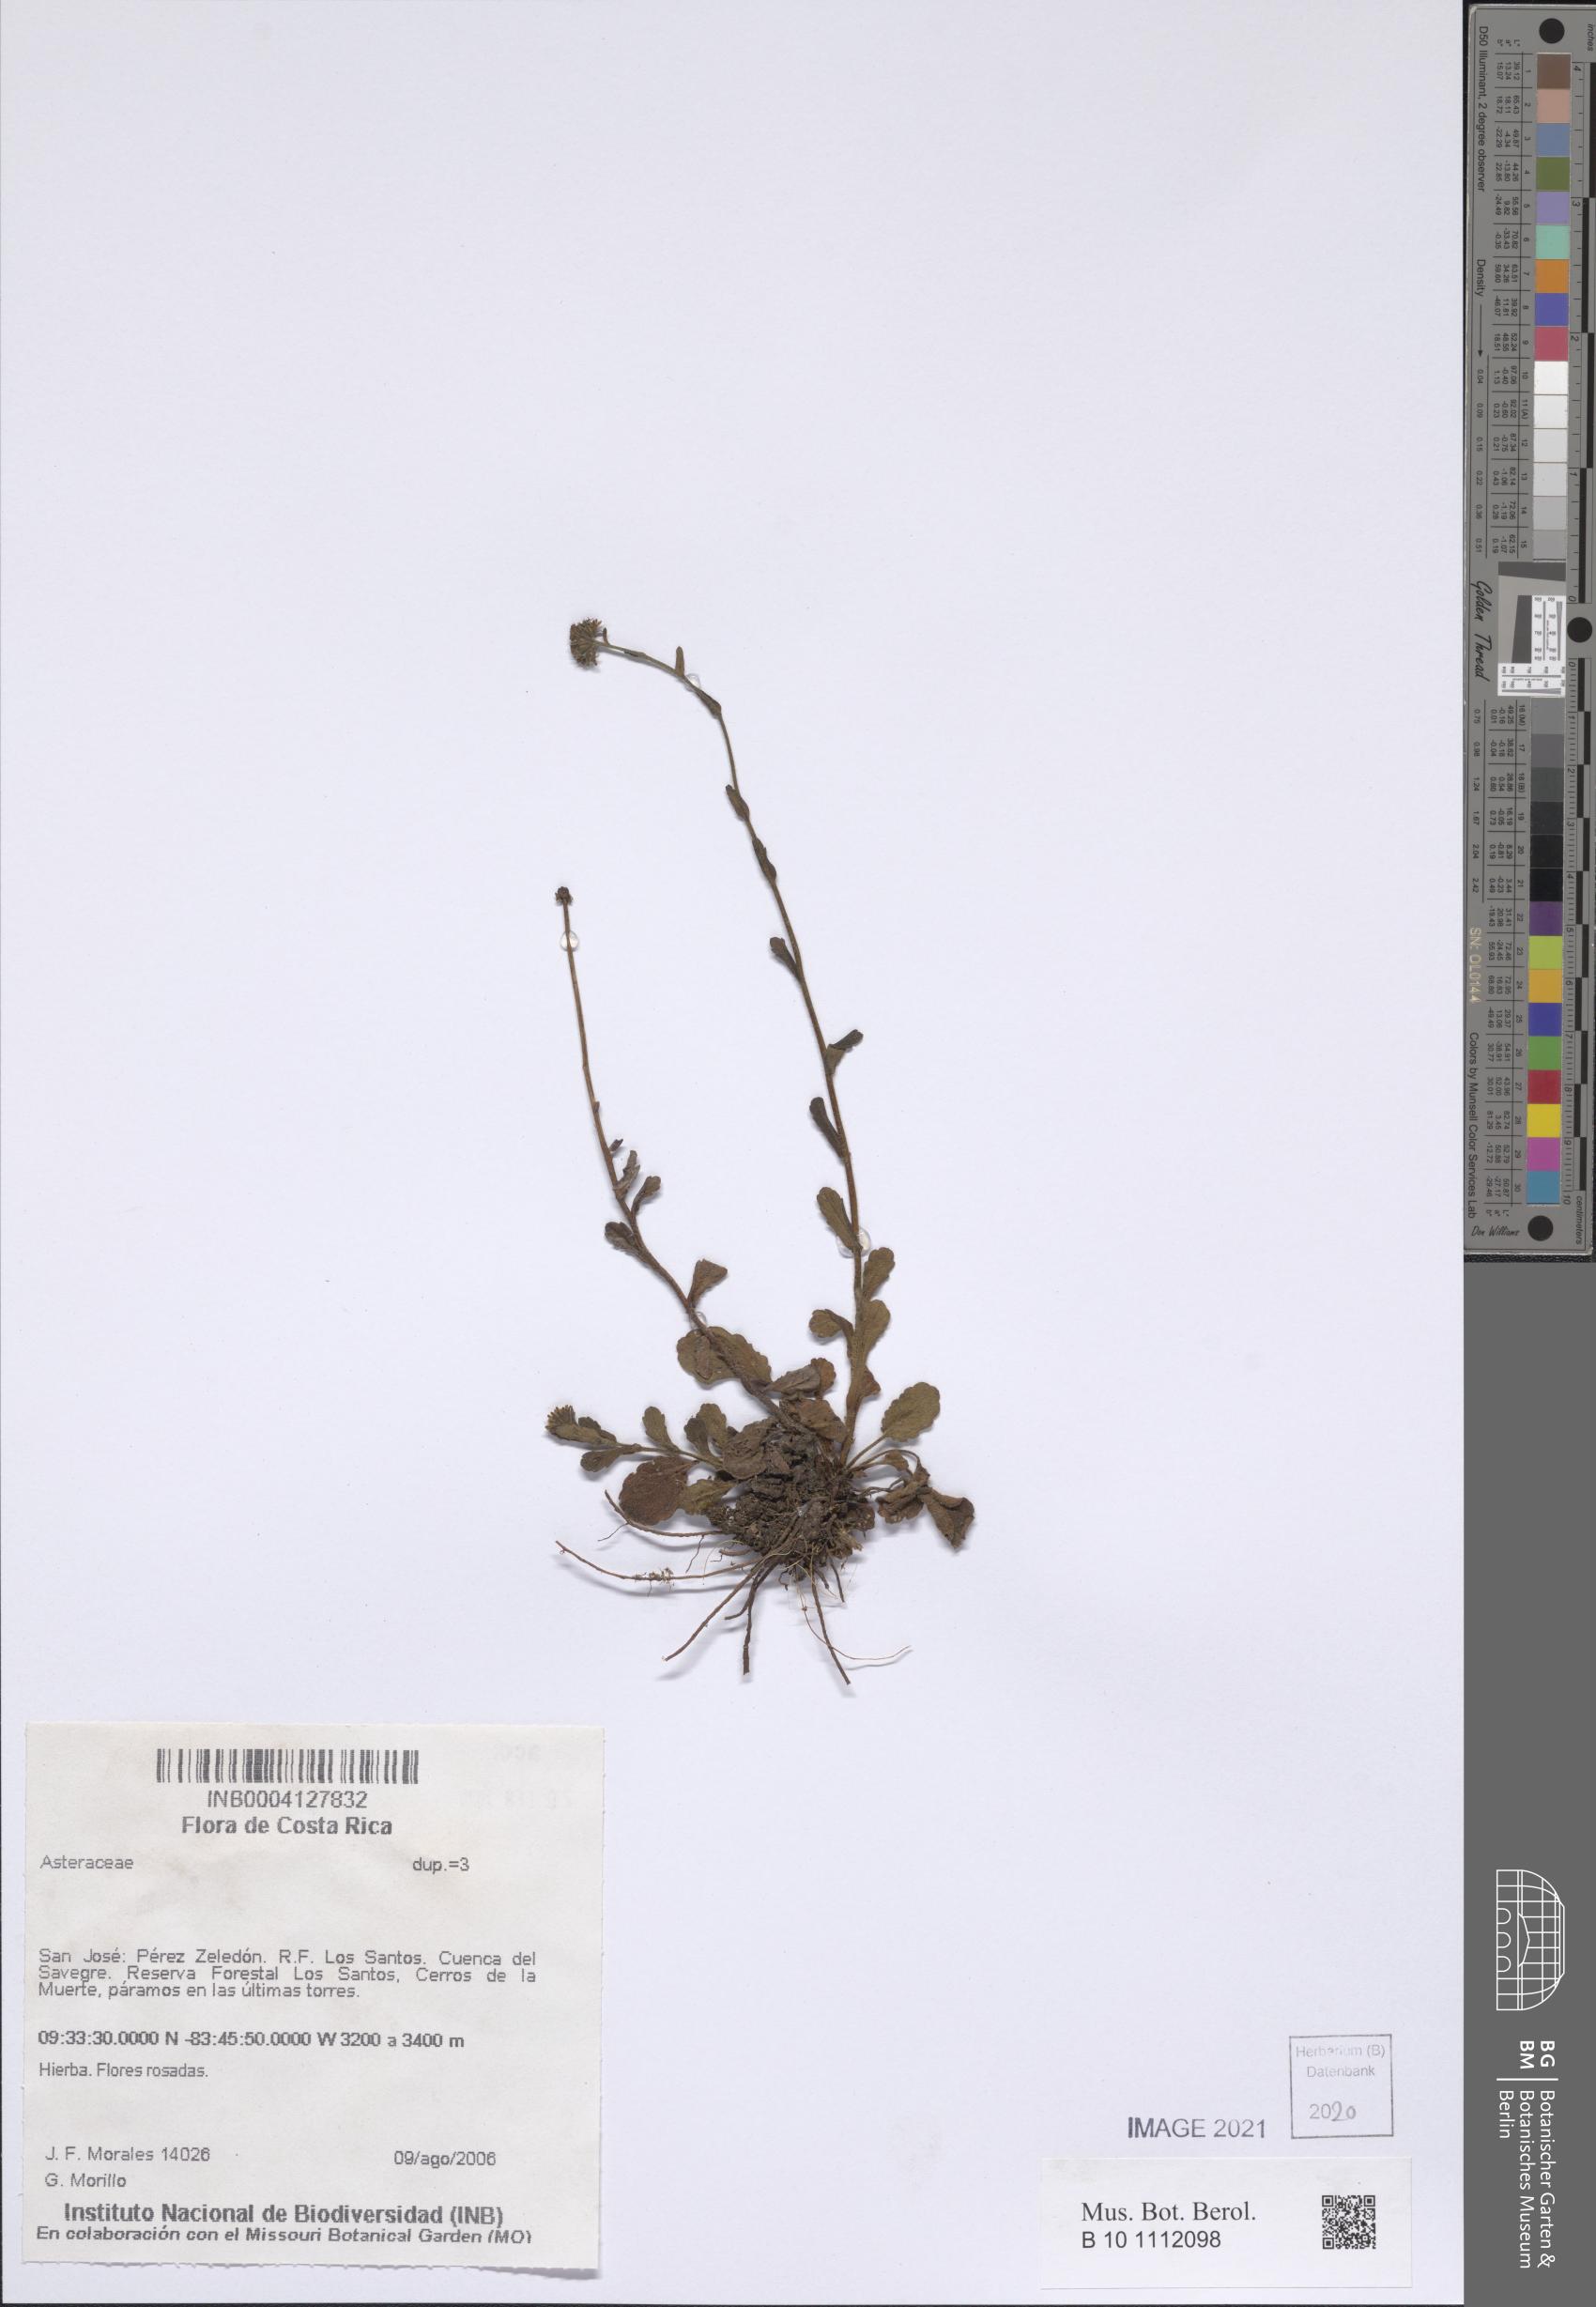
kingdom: Plantae
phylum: Tracheophyta
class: Magnoliopsida
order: Asterales
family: Asteraceae
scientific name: Asteraceae
